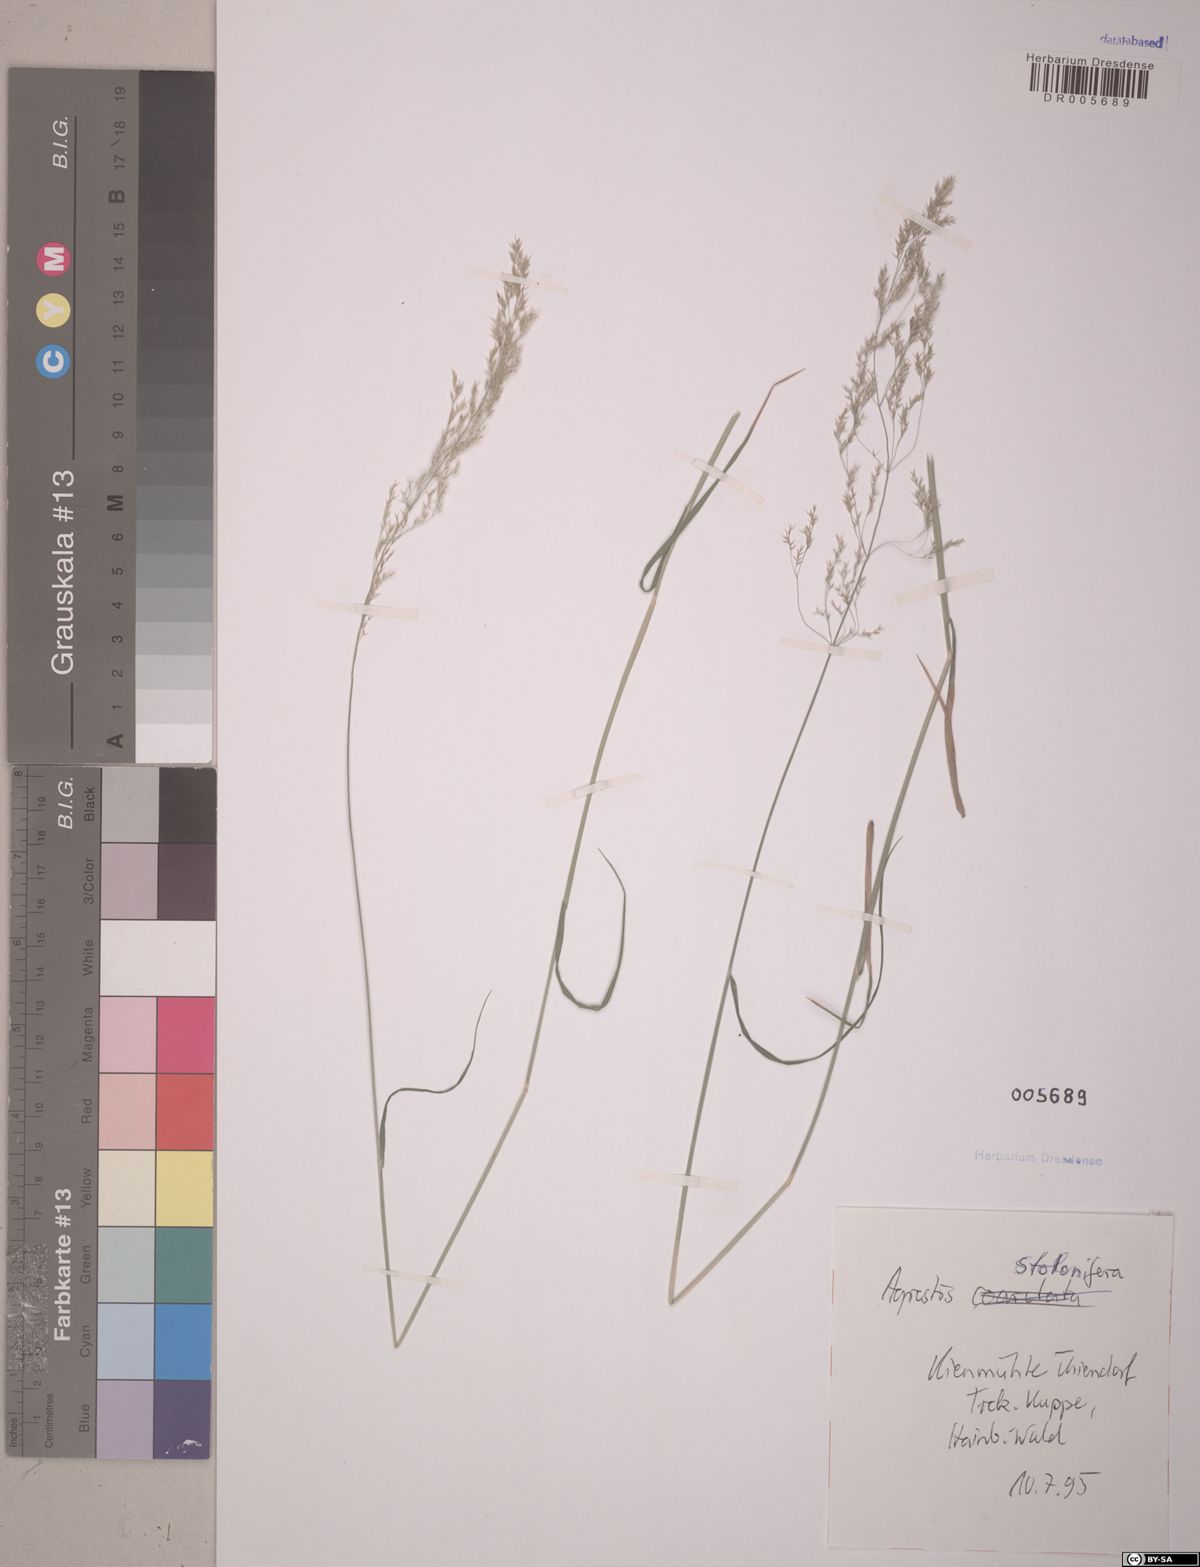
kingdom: Plantae
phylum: Tracheophyta
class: Liliopsida
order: Poales
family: Poaceae
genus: Agrostis
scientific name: Agrostis stolonifera
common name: Creeping bentgrass
